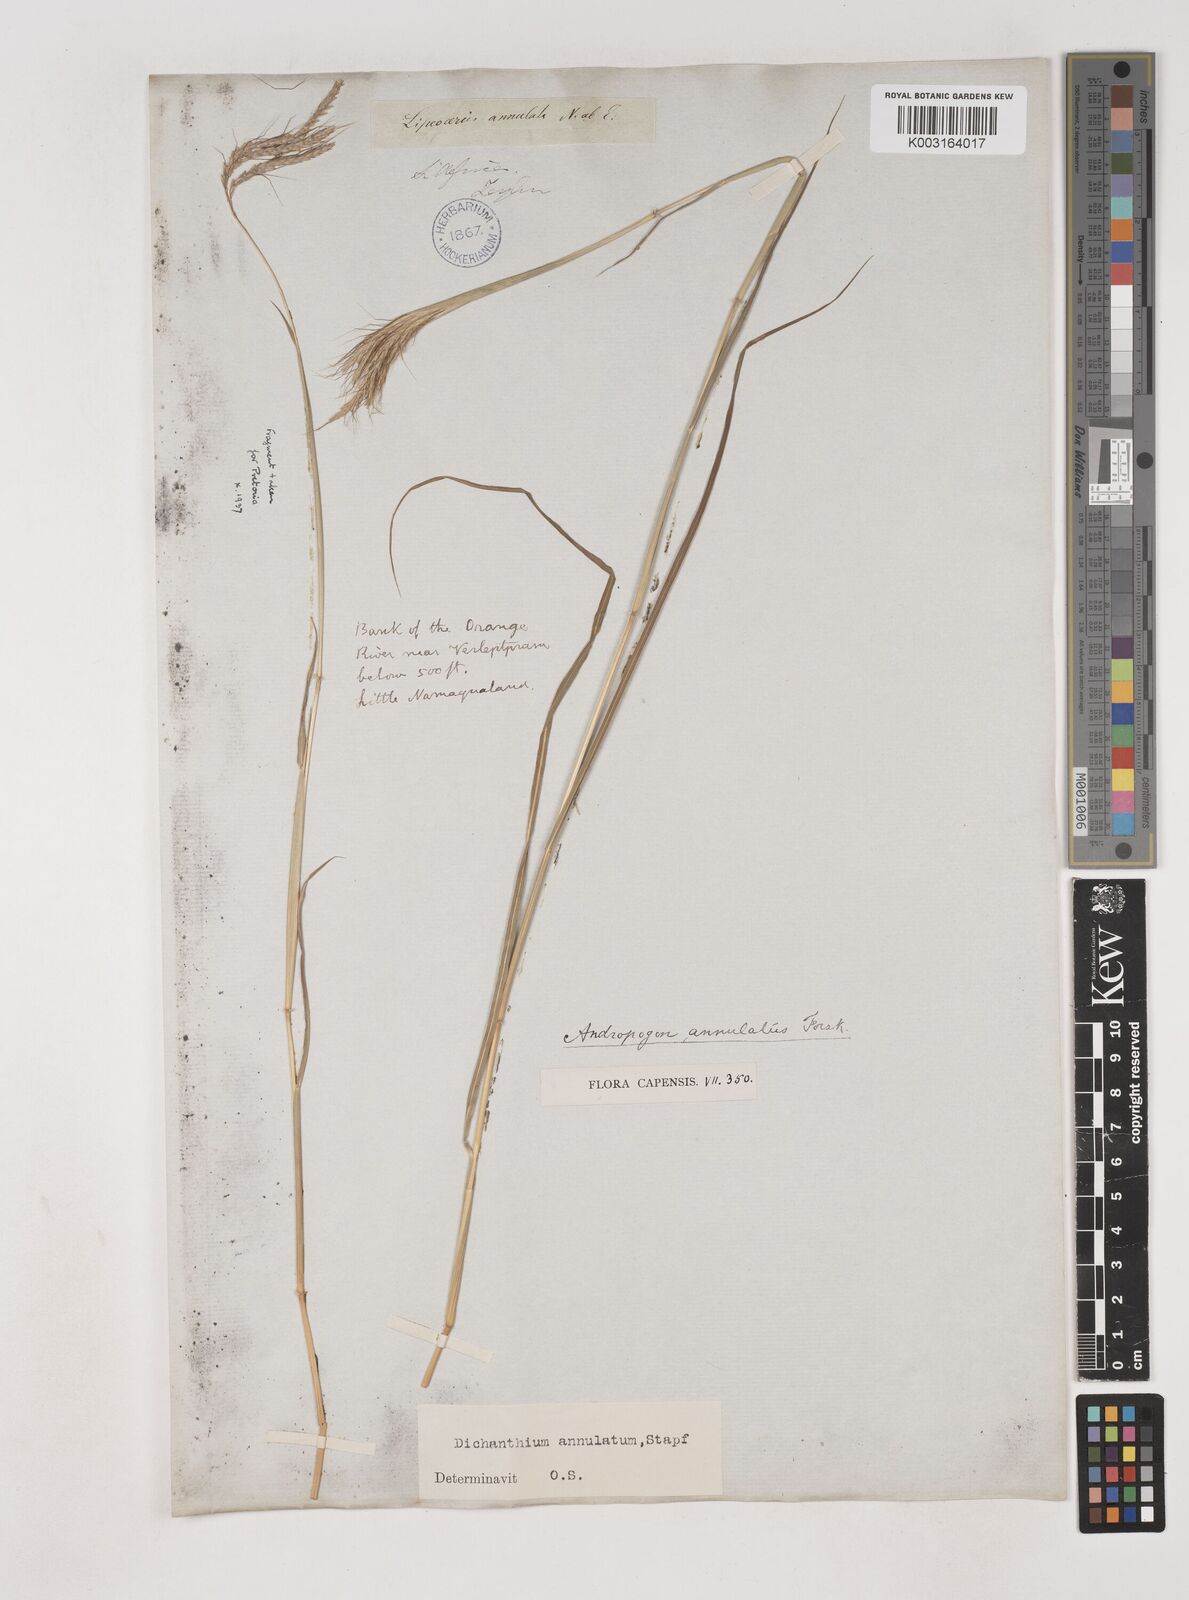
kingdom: Plantae
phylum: Tracheophyta
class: Liliopsida
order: Poales
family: Poaceae
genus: Dichanthium
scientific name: Dichanthium annulatum
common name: Kleberg's bluestem
